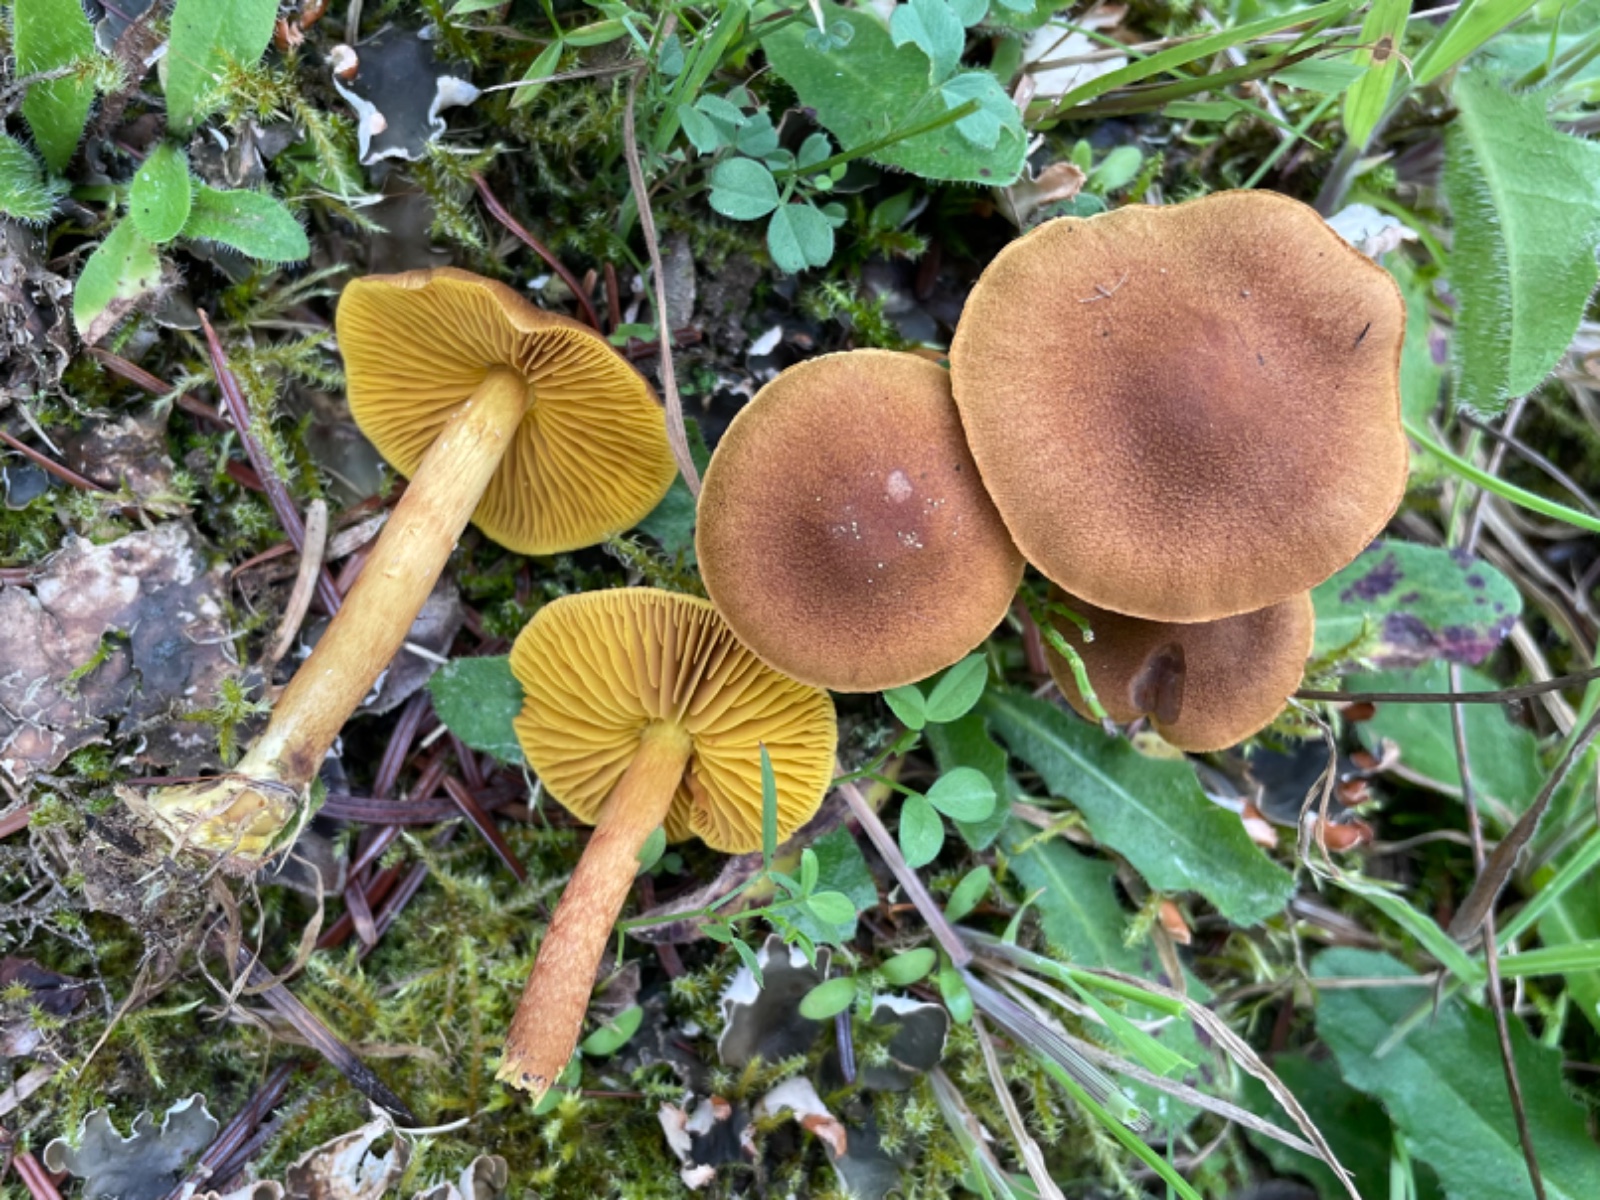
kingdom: Fungi
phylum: Basidiomycota
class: Agaricomycetes
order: Agaricales
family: Cortinariaceae
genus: Cortinarius
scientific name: Cortinarius
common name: gulbladet slørhat
